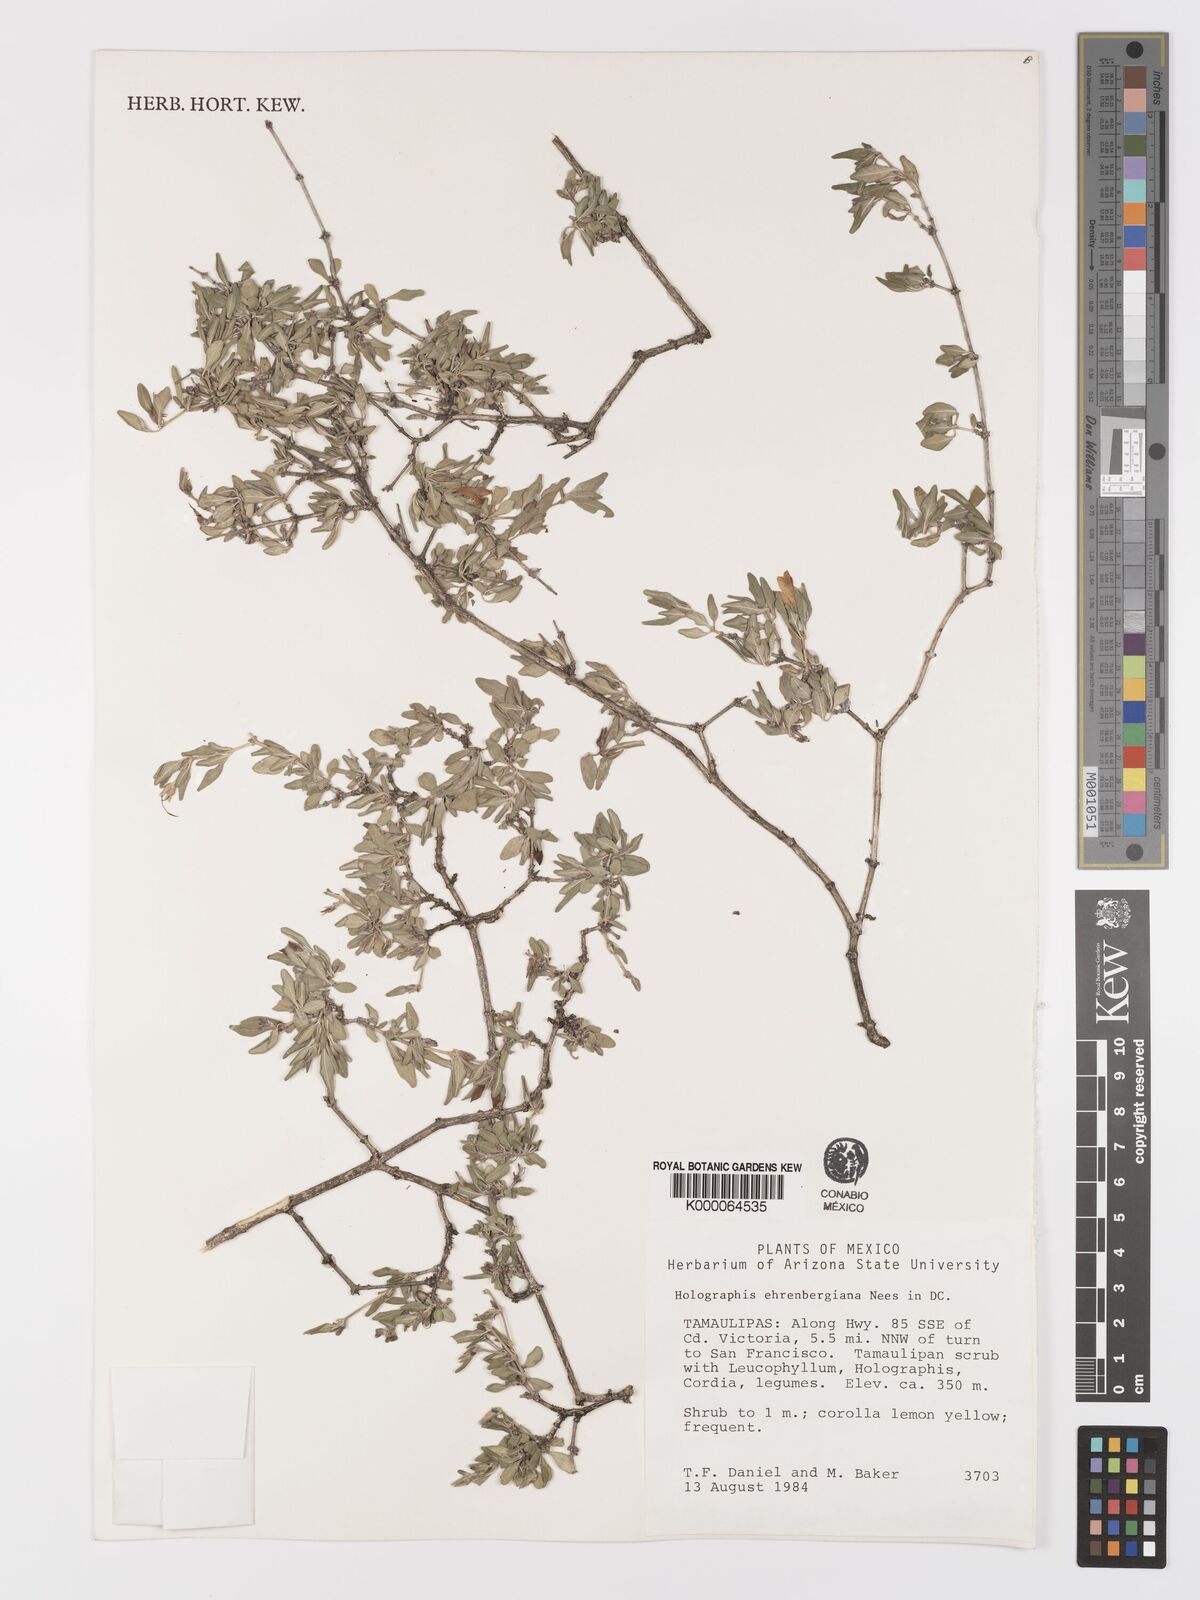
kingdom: Plantae
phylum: Tracheophyta
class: Magnoliopsida
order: Lamiales
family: Acanthaceae
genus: Holographis
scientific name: Holographis ehrenbergiana
